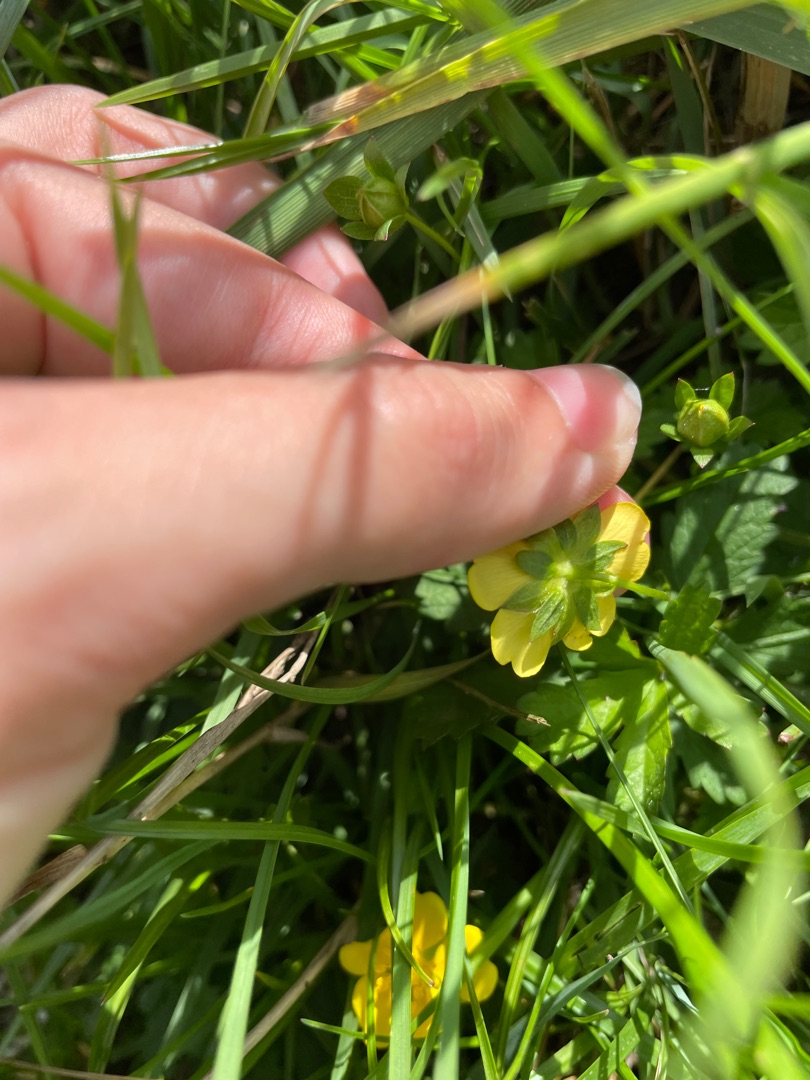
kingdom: Plantae
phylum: Tracheophyta
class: Magnoliopsida
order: Rosales
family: Rosaceae
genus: Potentilla
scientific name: Potentilla reptans
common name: Krybende potentil
